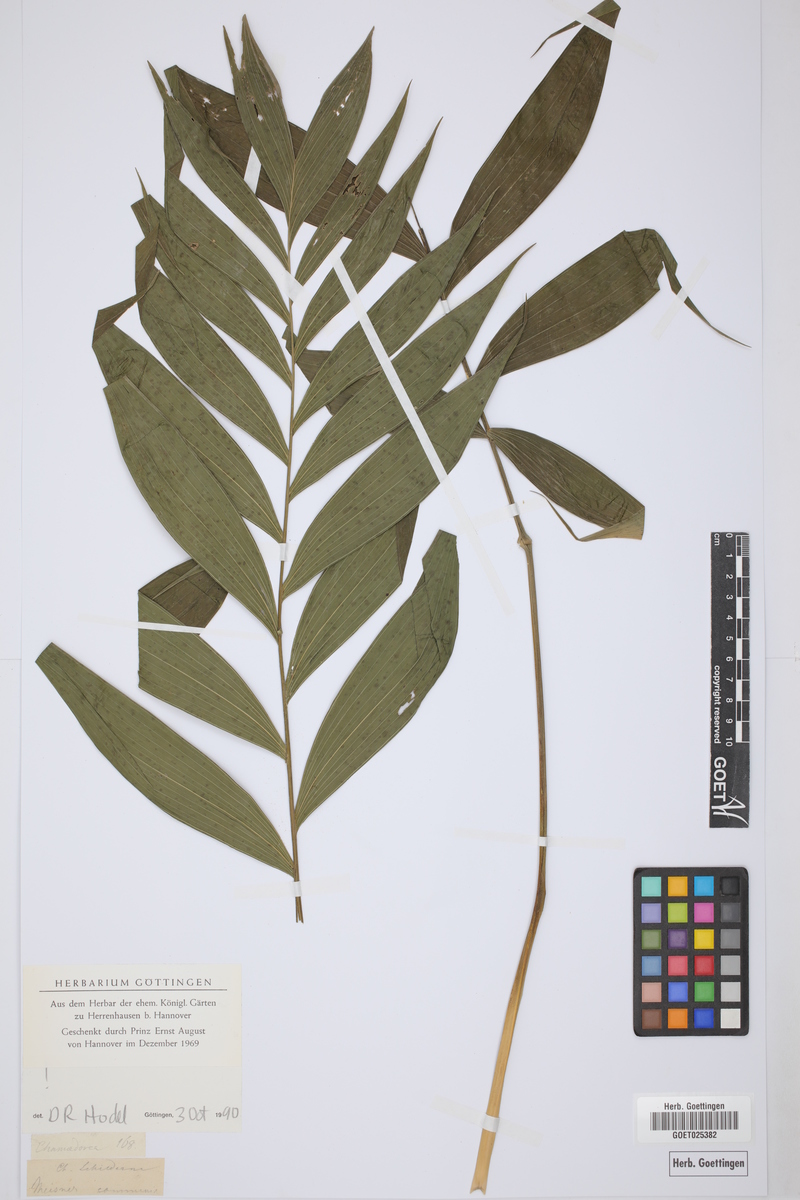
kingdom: Plantae
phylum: Tracheophyta
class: Liliopsida
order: Arecales
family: Arecaceae
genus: Chamaedorea
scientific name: Chamaedorea
